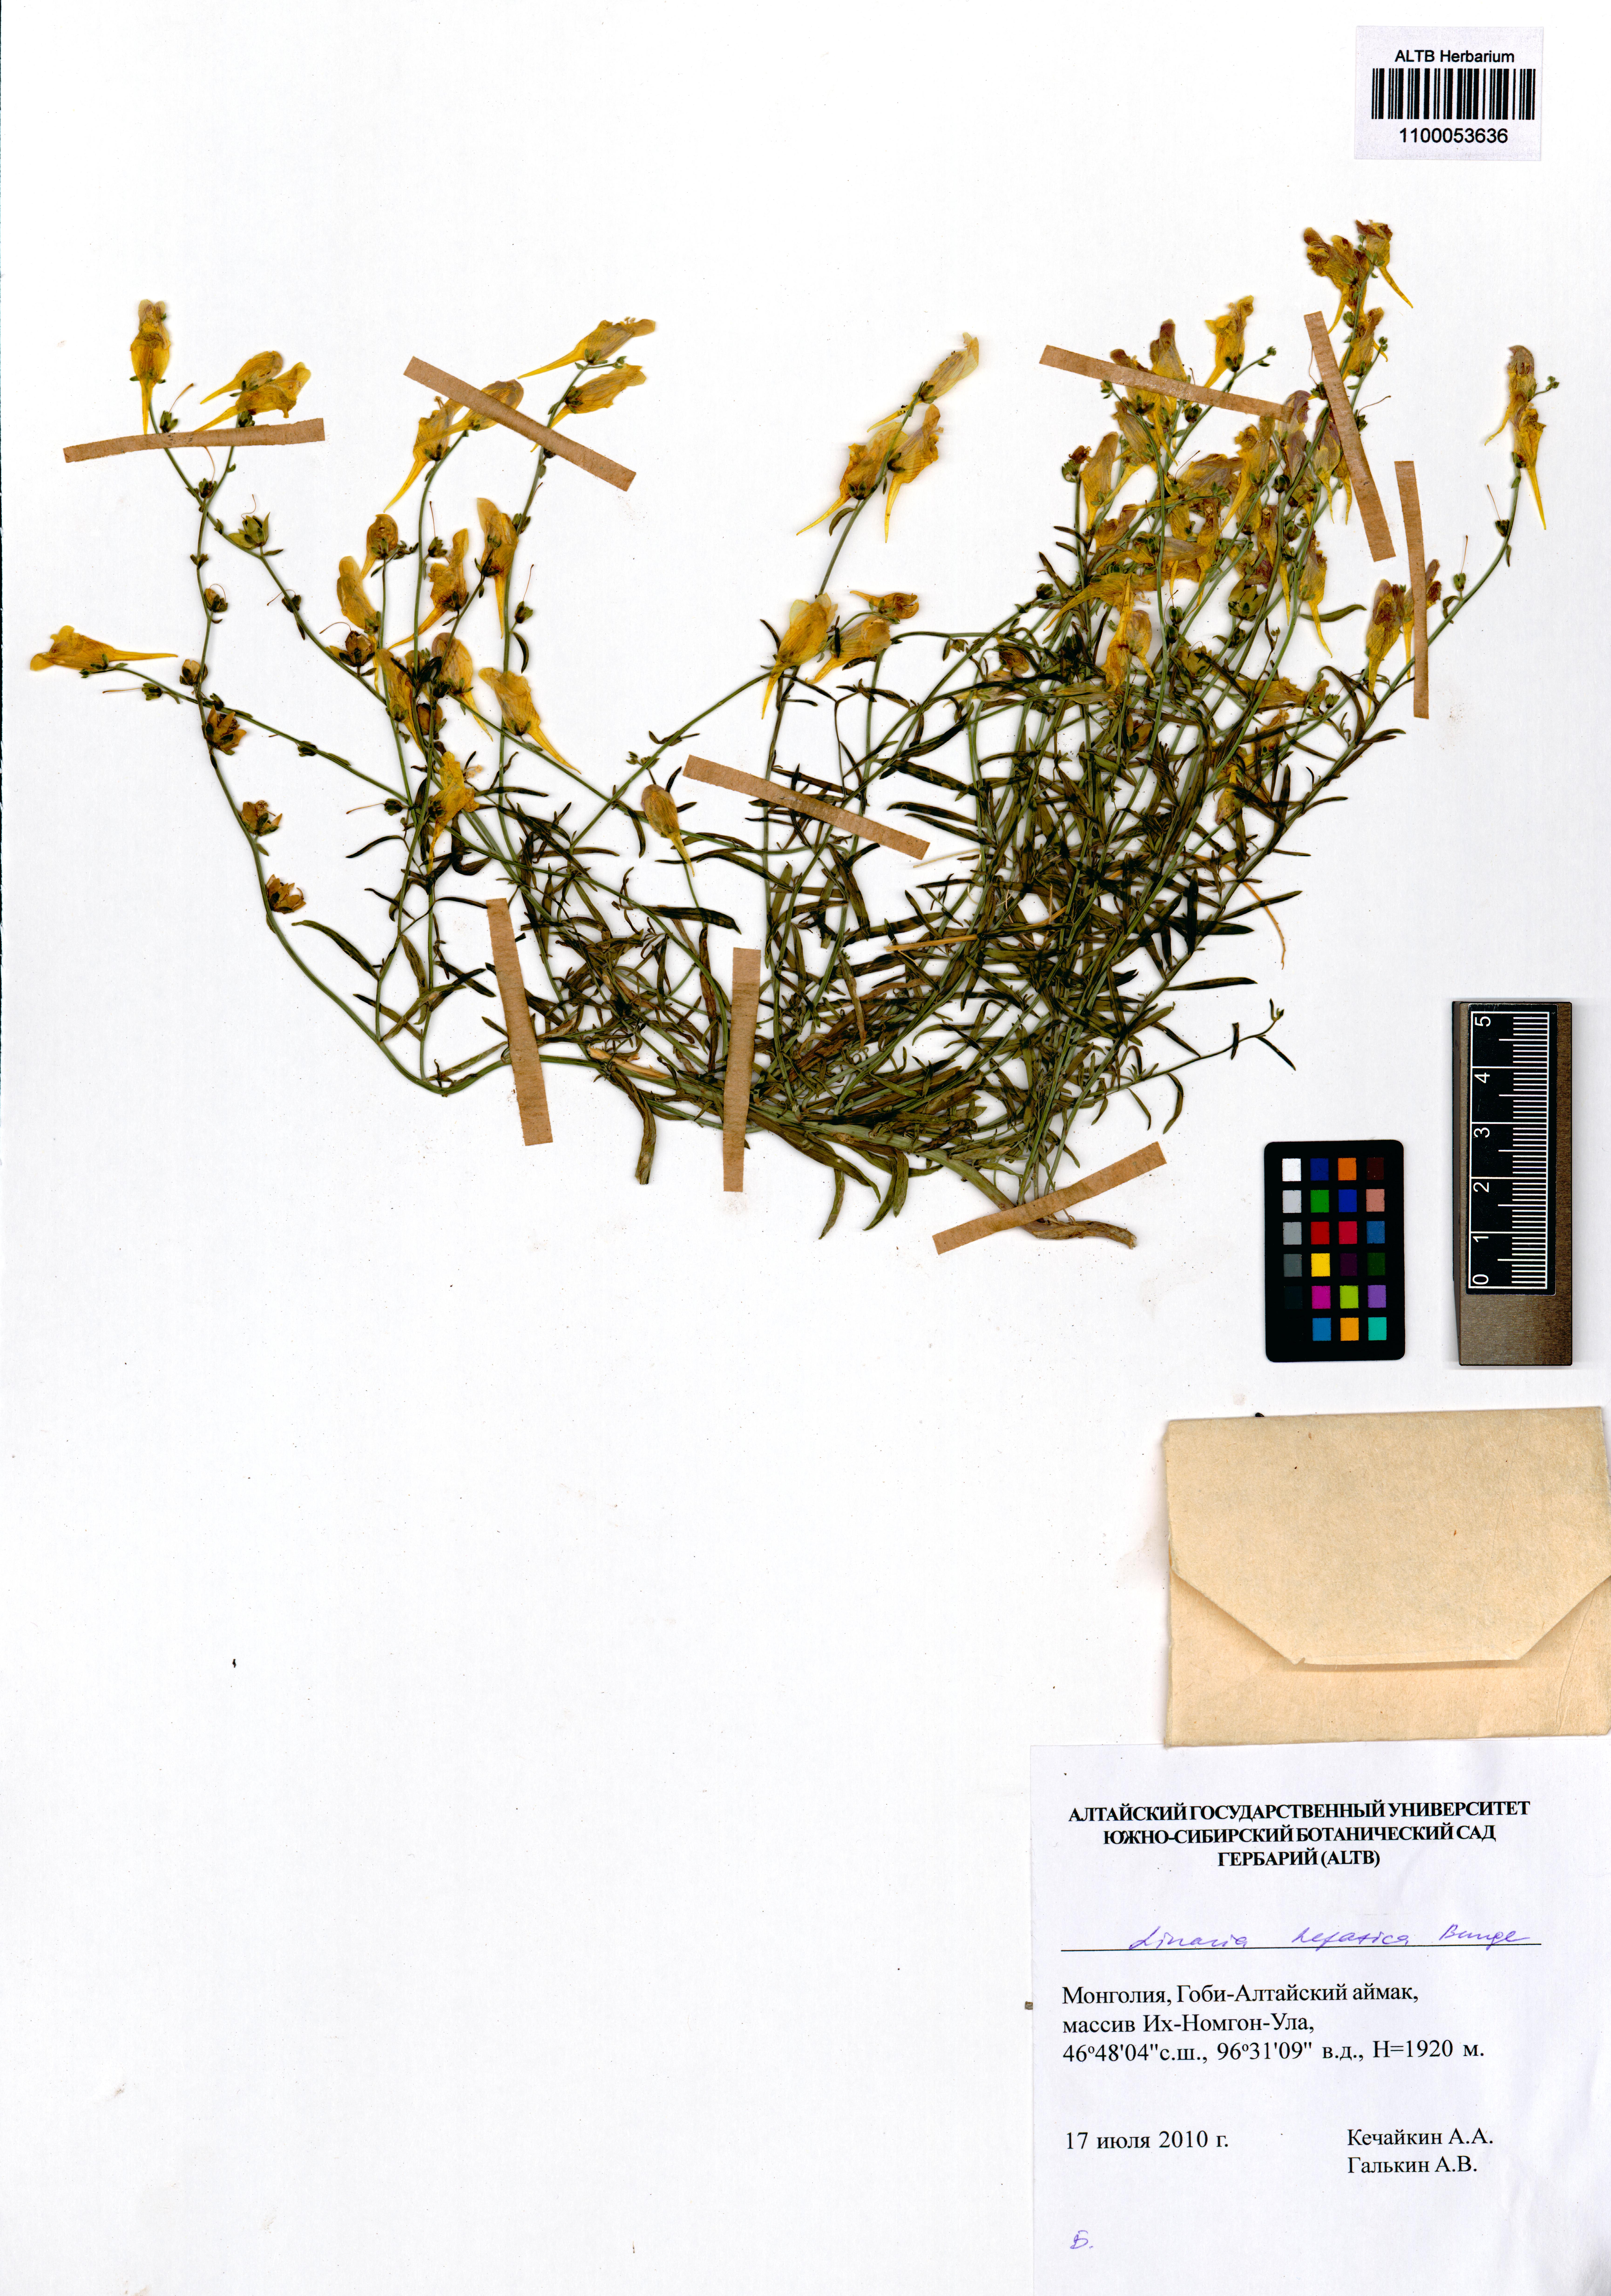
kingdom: Plantae
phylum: Tracheophyta
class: Magnoliopsida
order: Lamiales
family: Plantaginaceae
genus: Linaria
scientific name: Linaria hepatica
